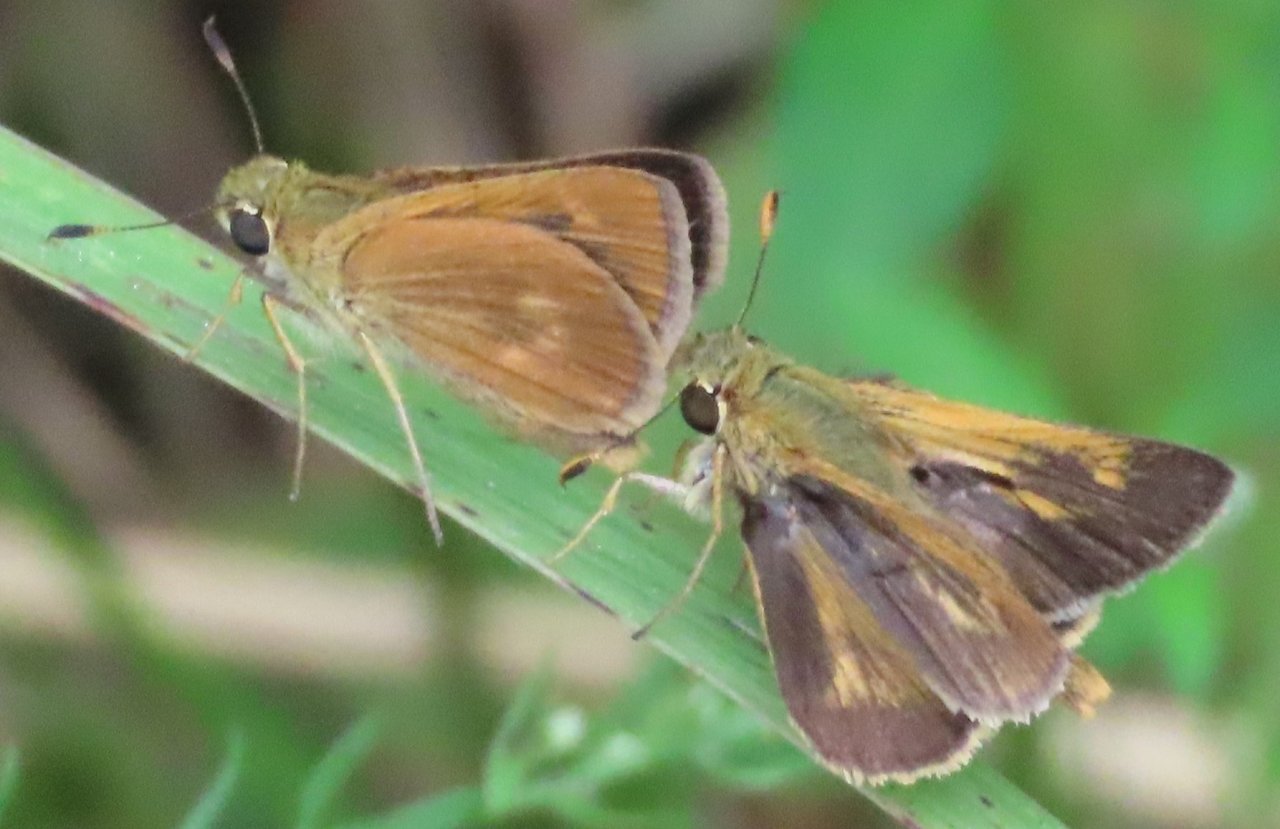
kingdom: Animalia
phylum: Arthropoda
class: Insecta
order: Lepidoptera
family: Hesperiidae
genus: Wallengrenia
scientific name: Wallengrenia otho
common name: Southern Broken-Dash
